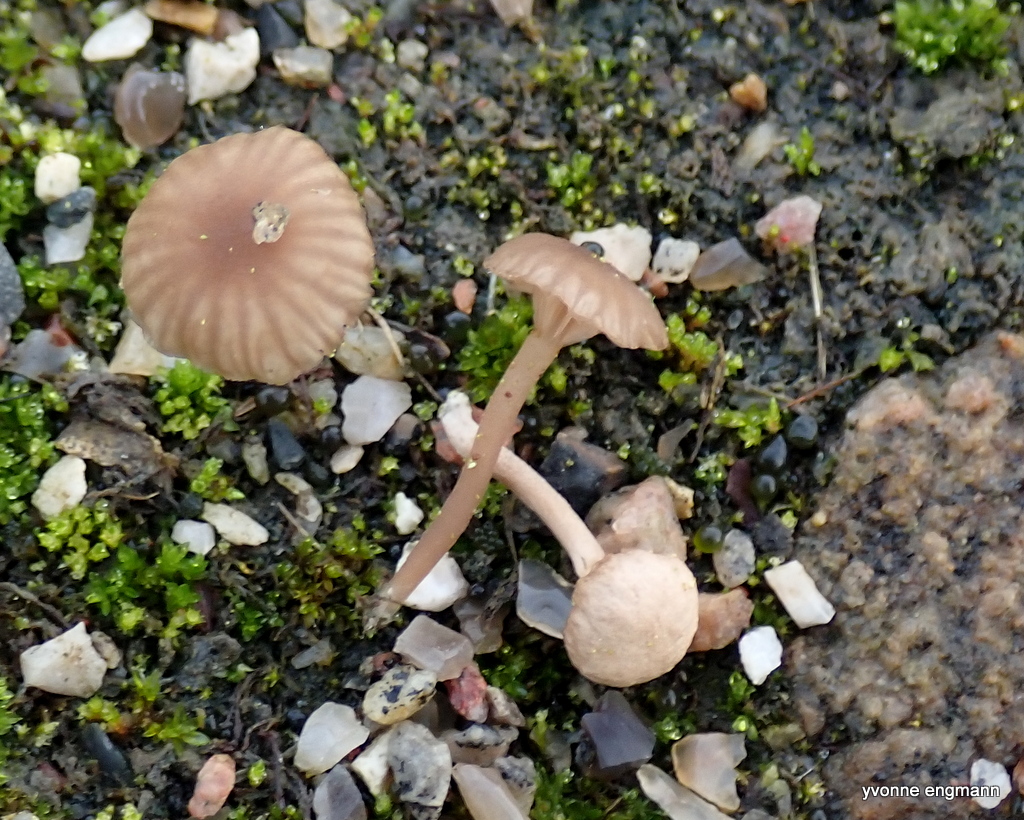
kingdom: Fungi
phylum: Basidiomycota
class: Agaricomycetes
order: Agaricales
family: Hygrophoraceae
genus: Arrhenia
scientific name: Arrhenia
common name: fontænehat
